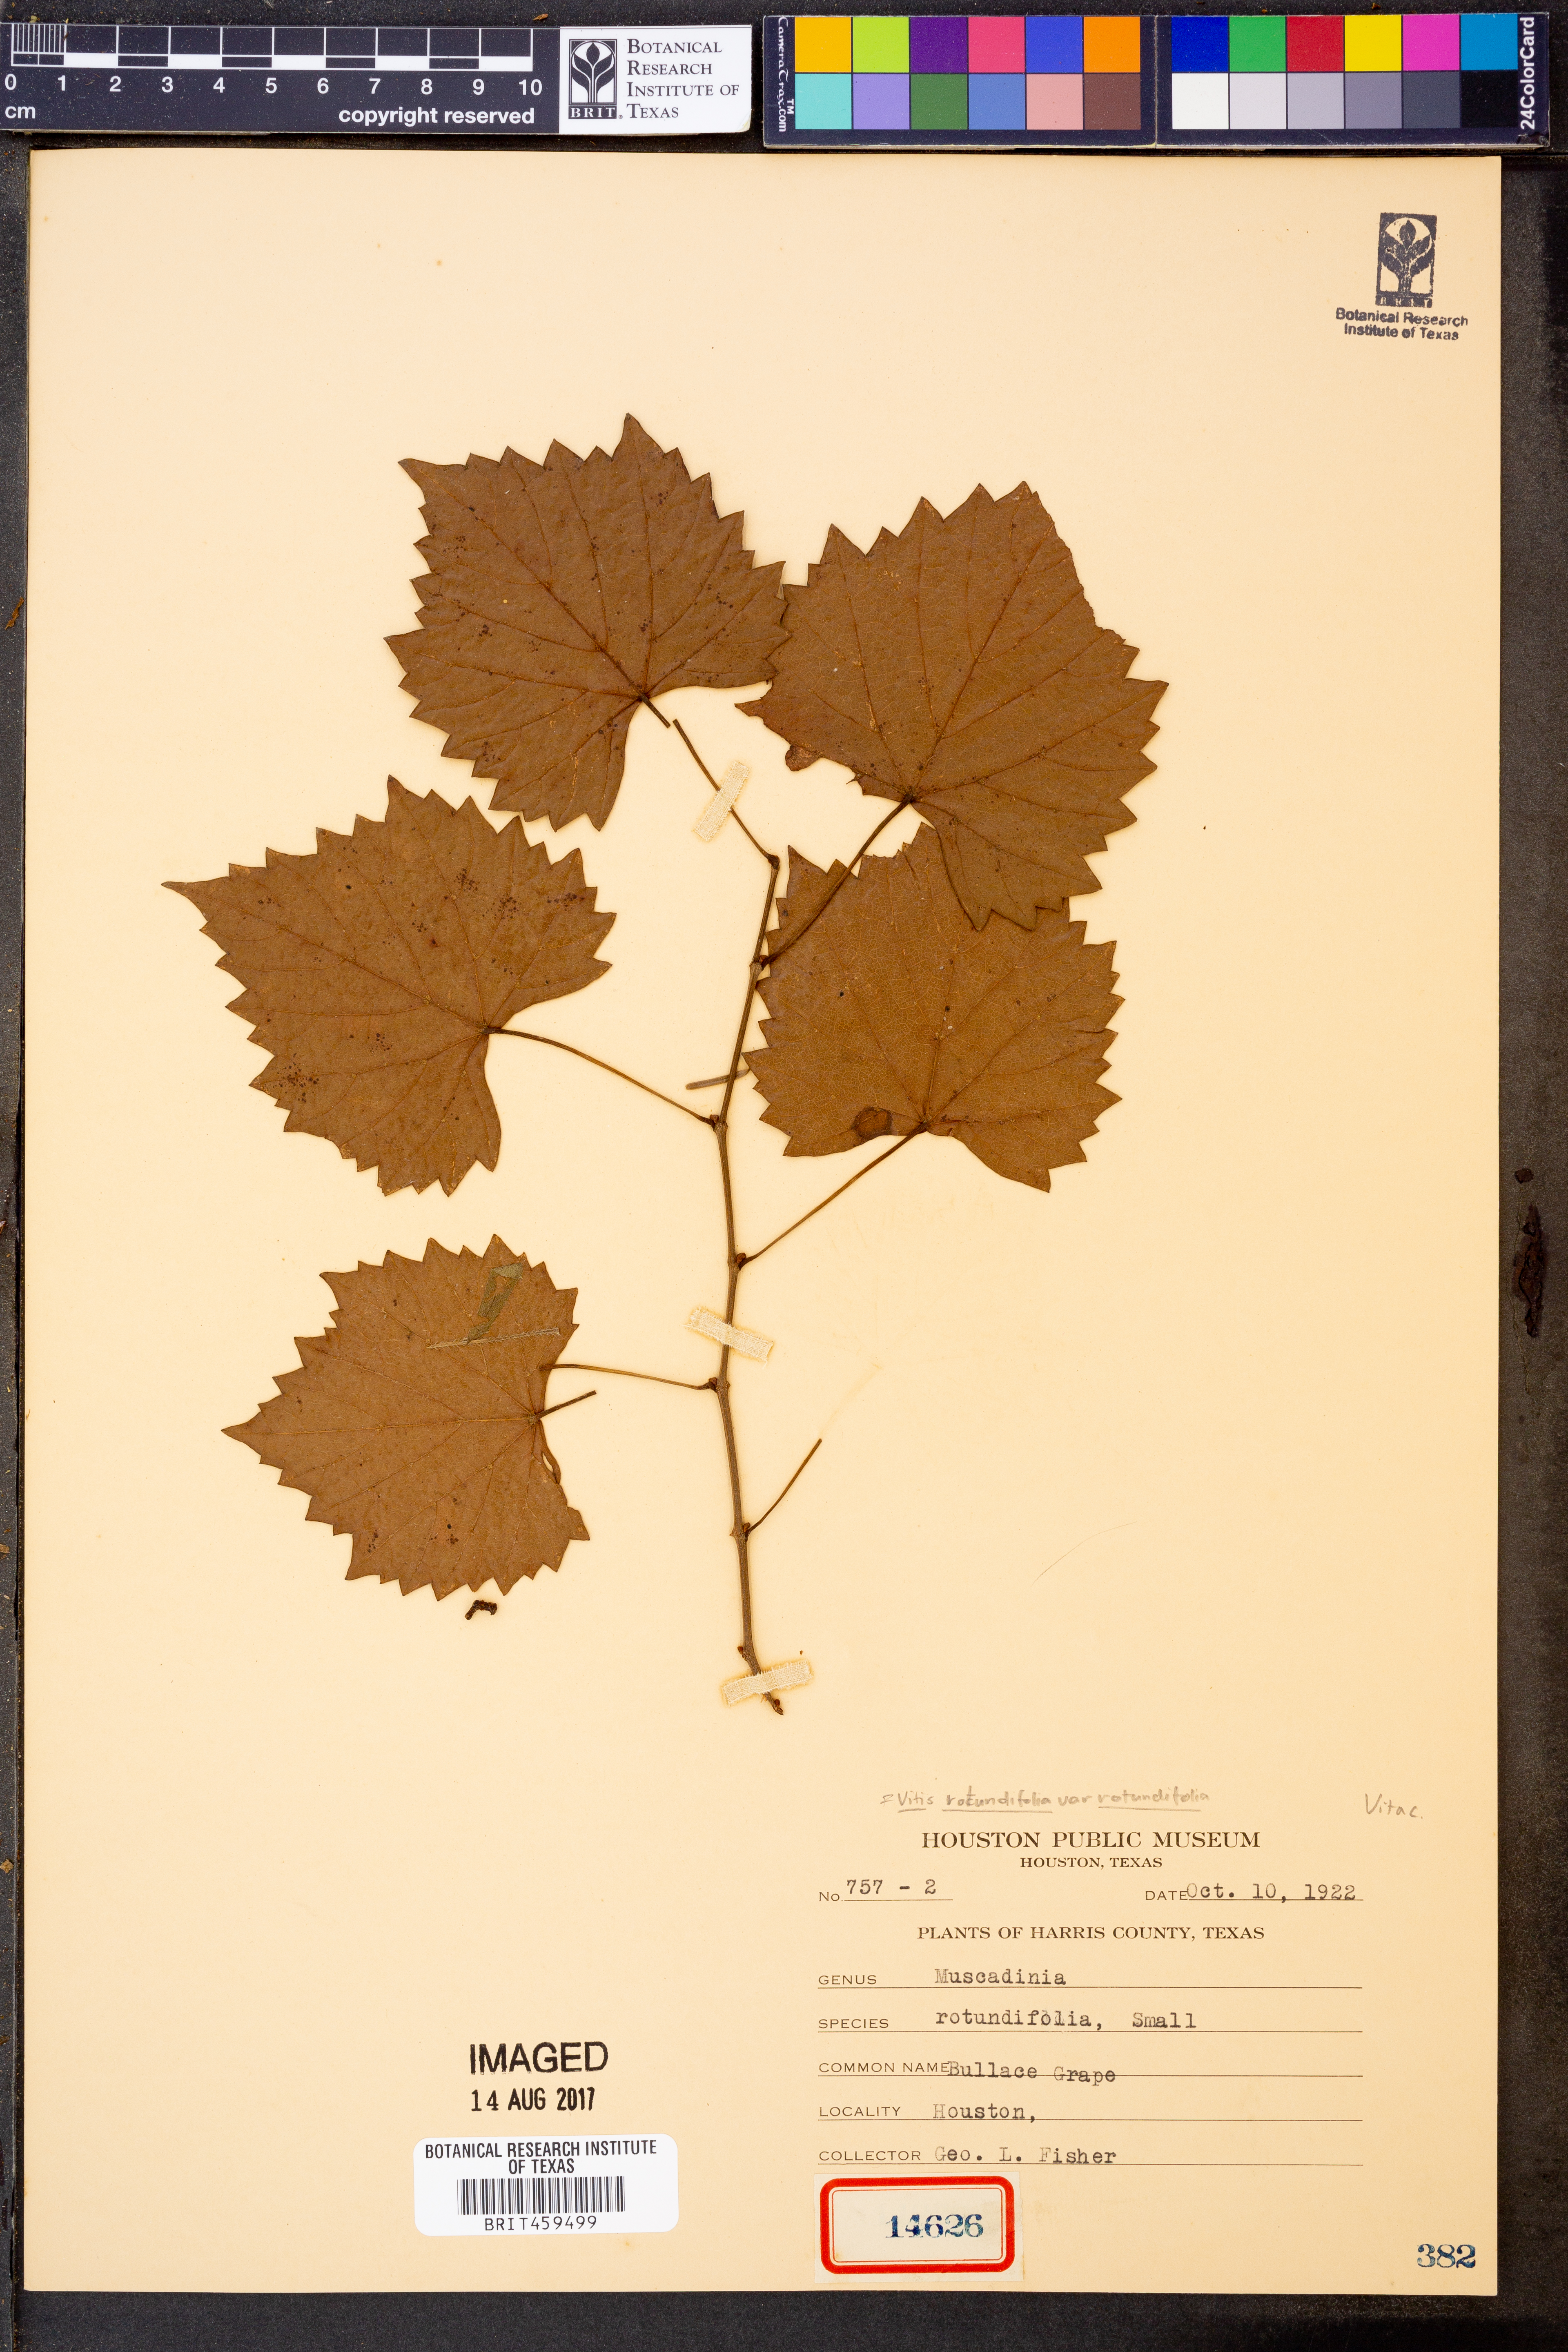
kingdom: Plantae
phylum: Tracheophyta
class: Magnoliopsida
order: Vitales
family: Vitaceae
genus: Vitis
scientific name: Vitis rotundifolia
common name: Muscadine grape
